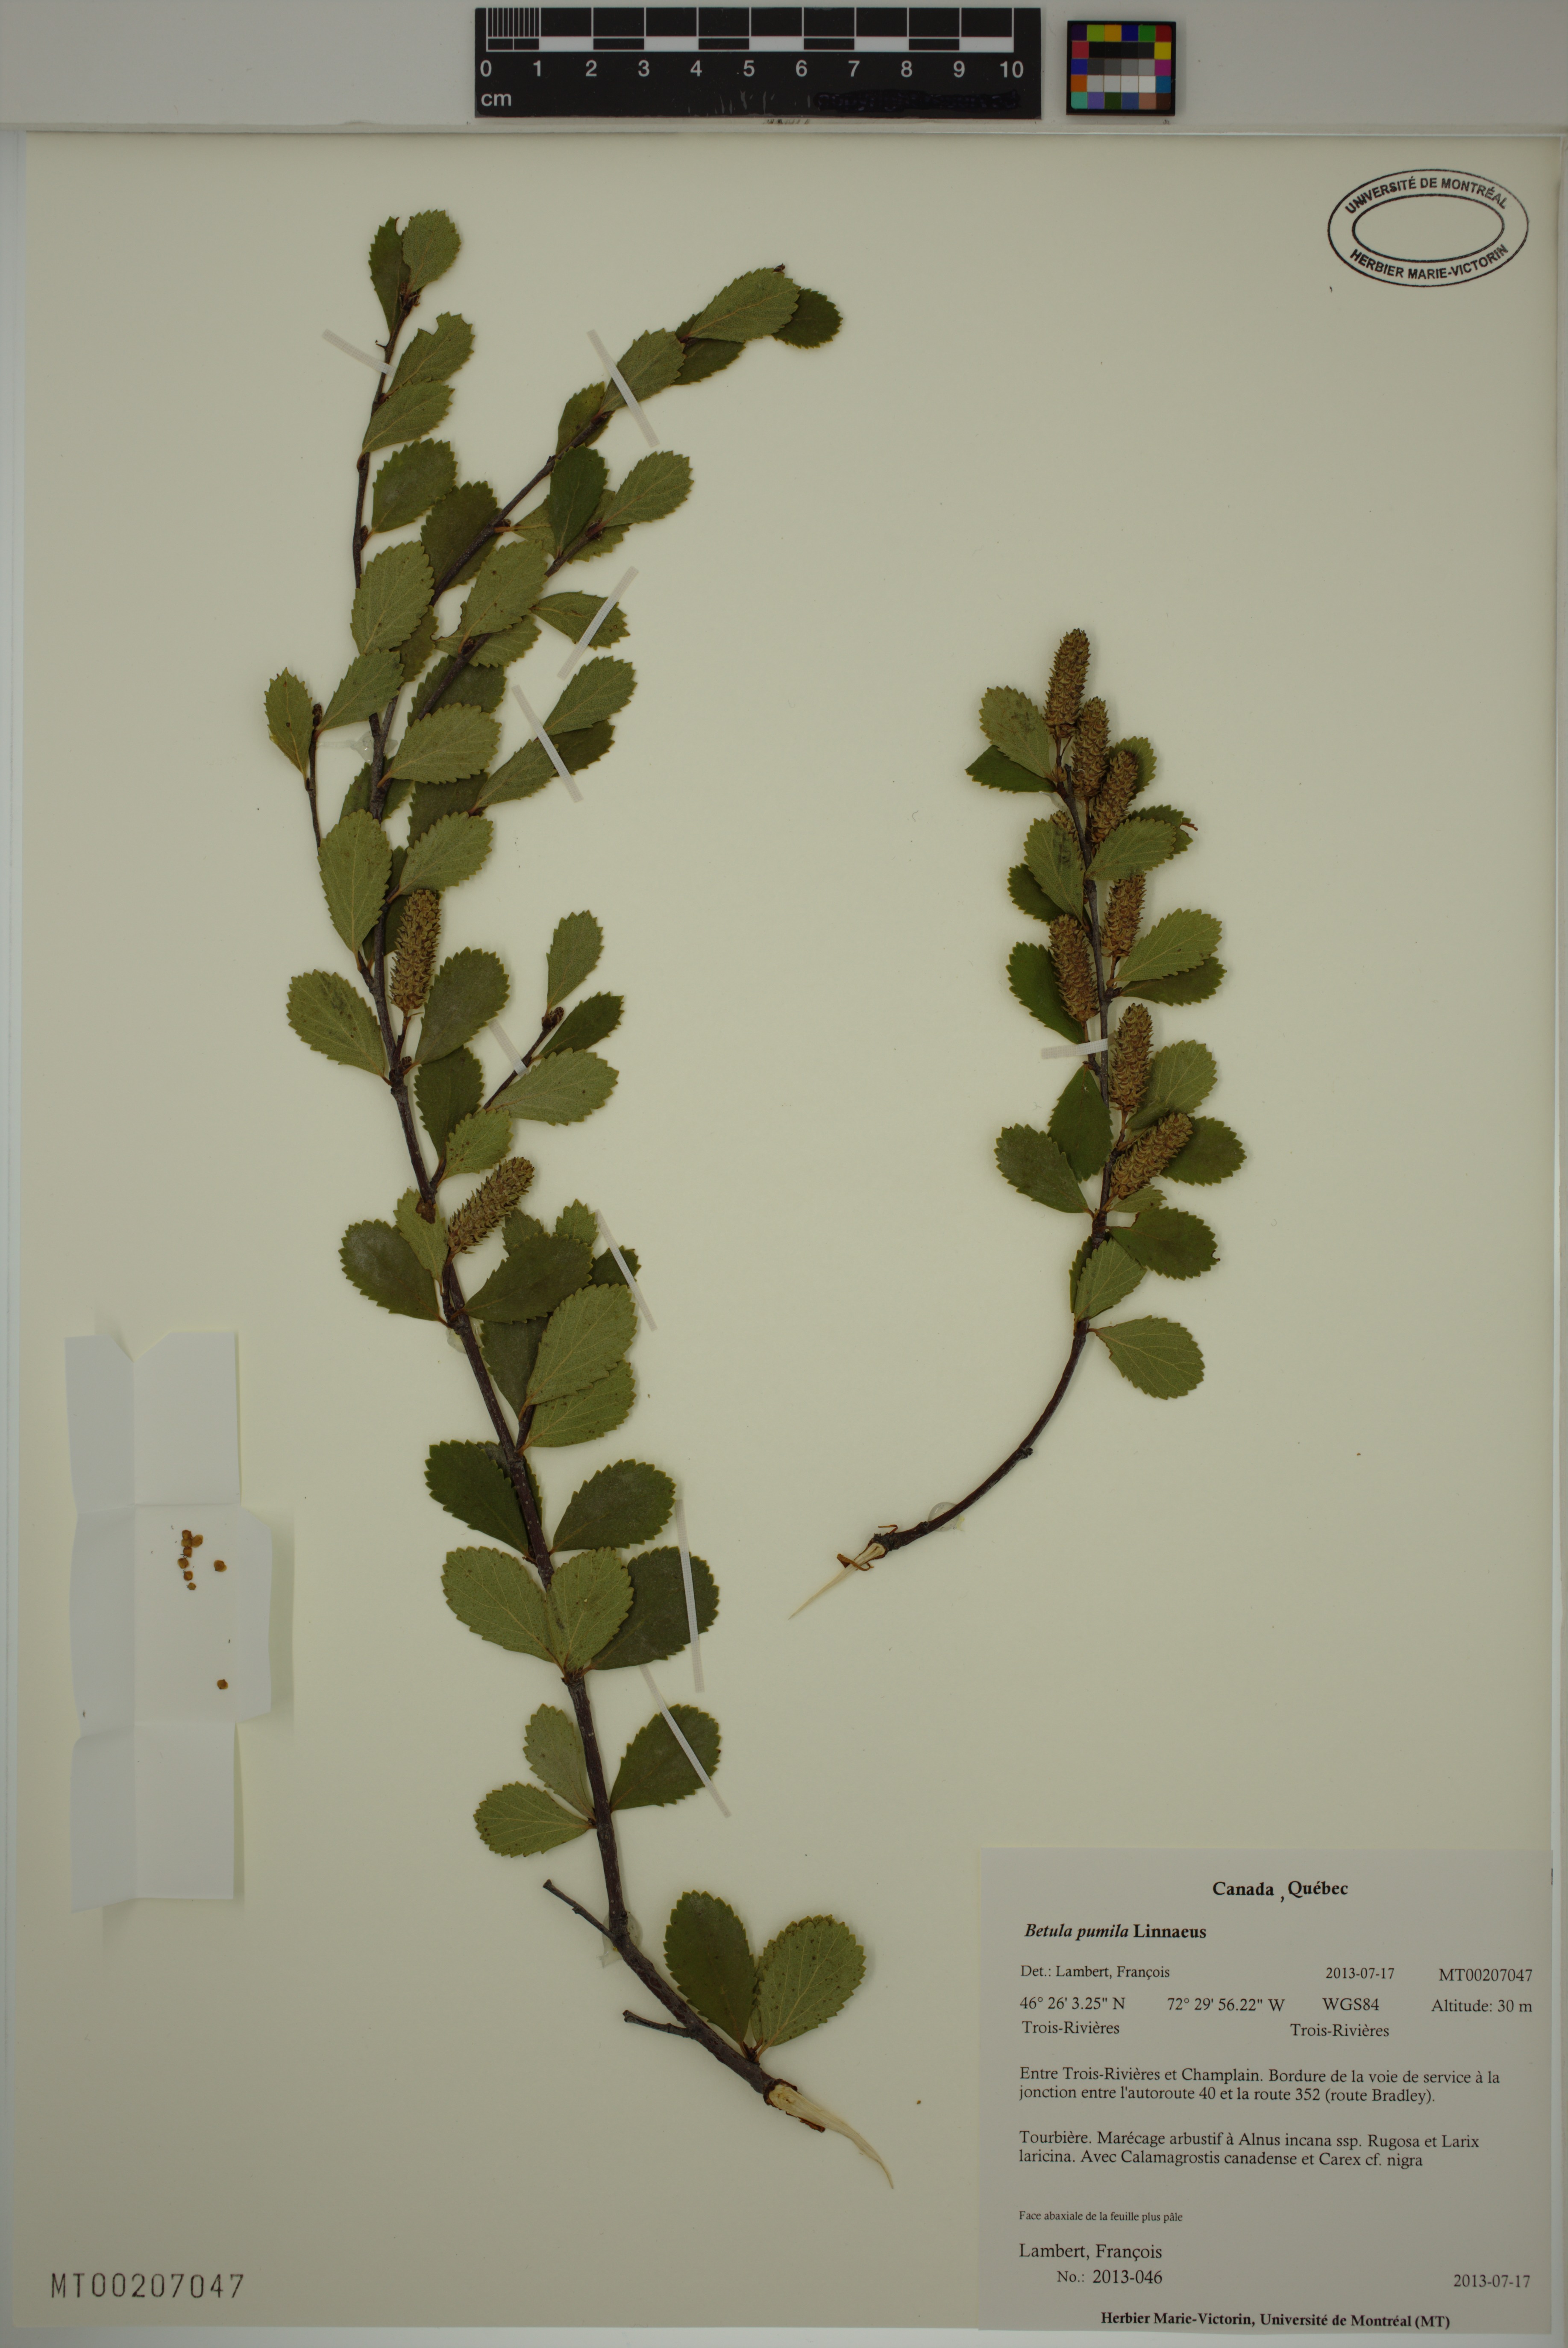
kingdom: Plantae
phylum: Tracheophyta
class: Magnoliopsida
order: Fagales
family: Betulaceae
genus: Betula
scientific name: Betula pumila
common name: Bog birch
